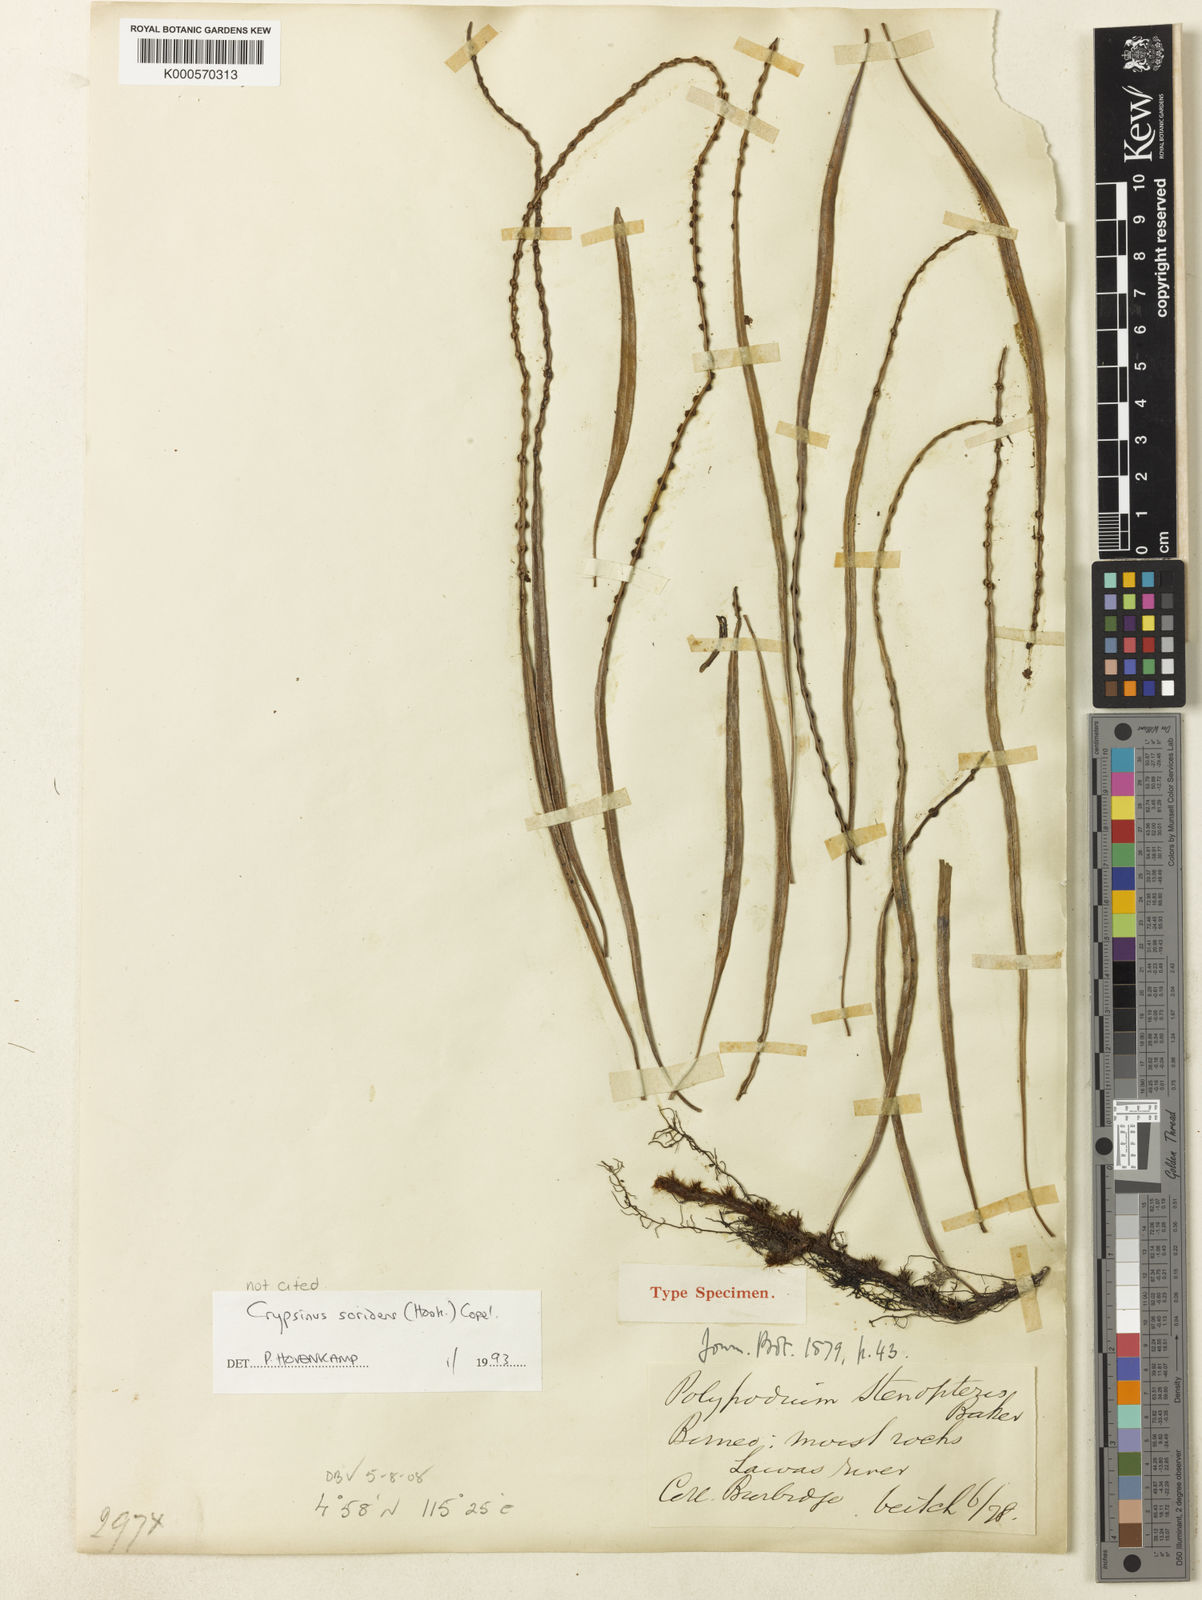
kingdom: Plantae
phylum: Tracheophyta
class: Polypodiopsida
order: Polypodiales
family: Polypodiaceae
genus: Selliguea
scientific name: Selliguea
